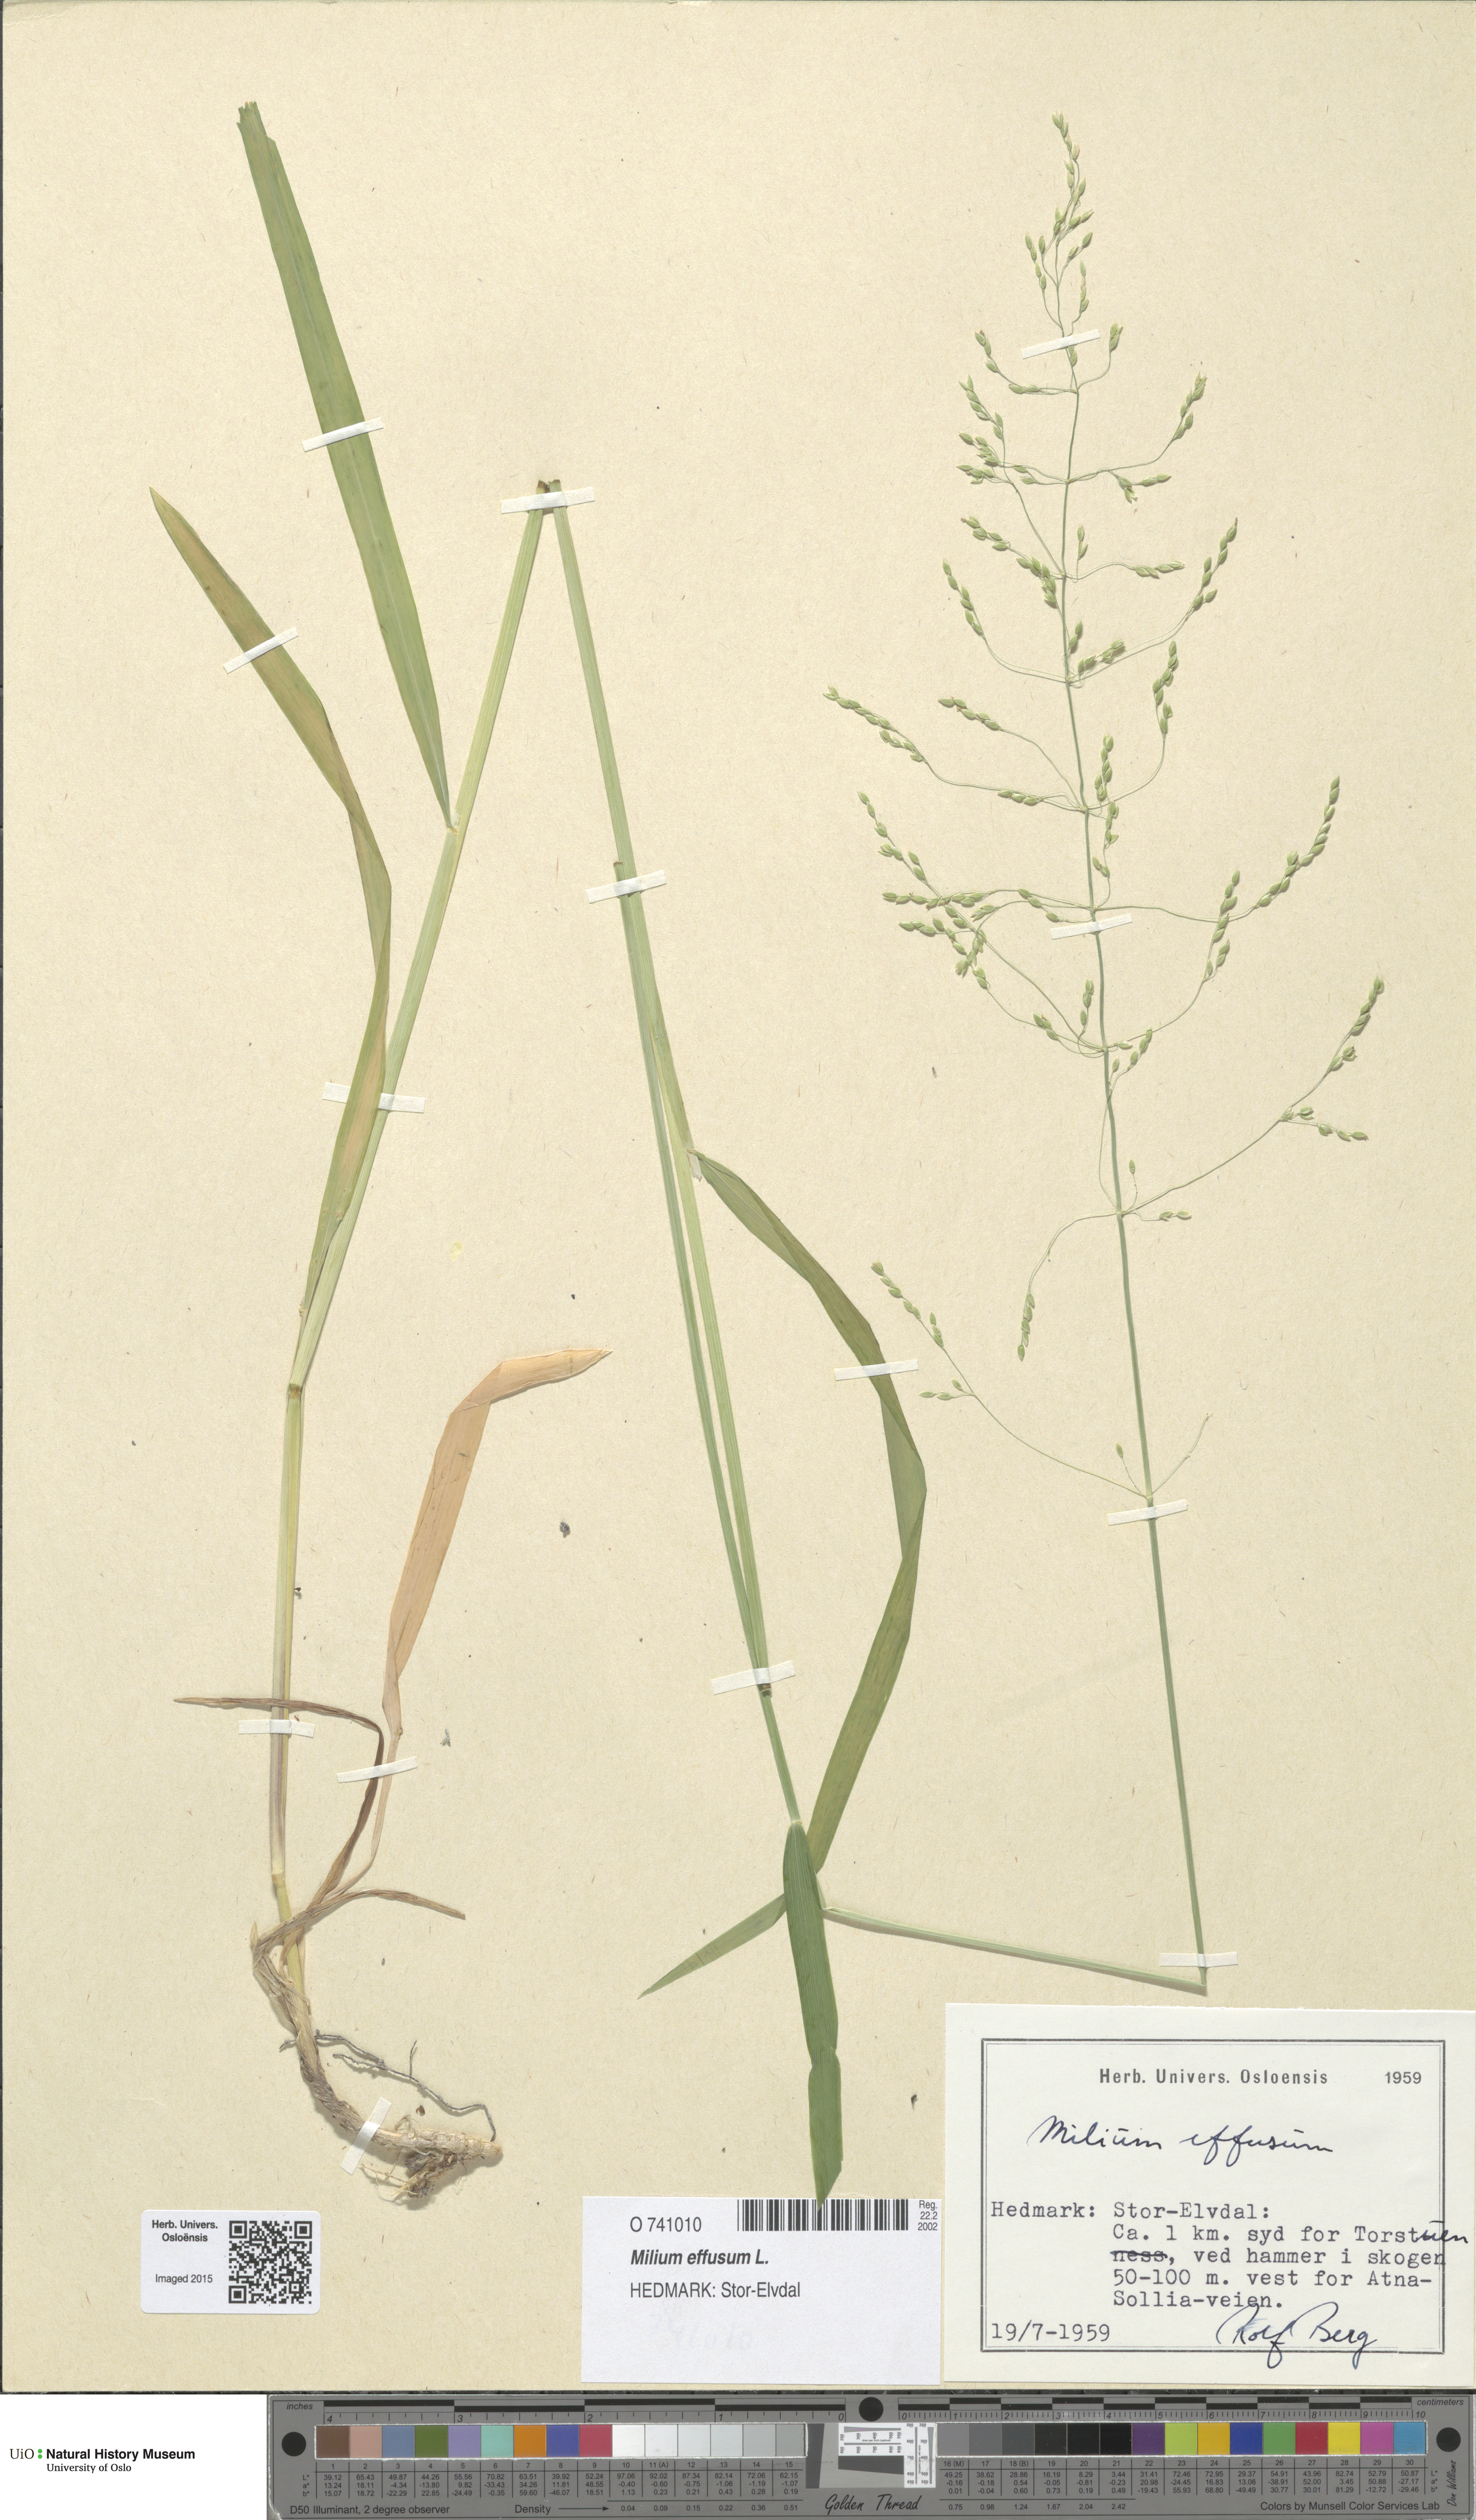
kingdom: Plantae
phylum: Tracheophyta
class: Liliopsida
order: Poales
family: Poaceae
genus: Milium
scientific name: Milium effusum
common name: Wood millet
